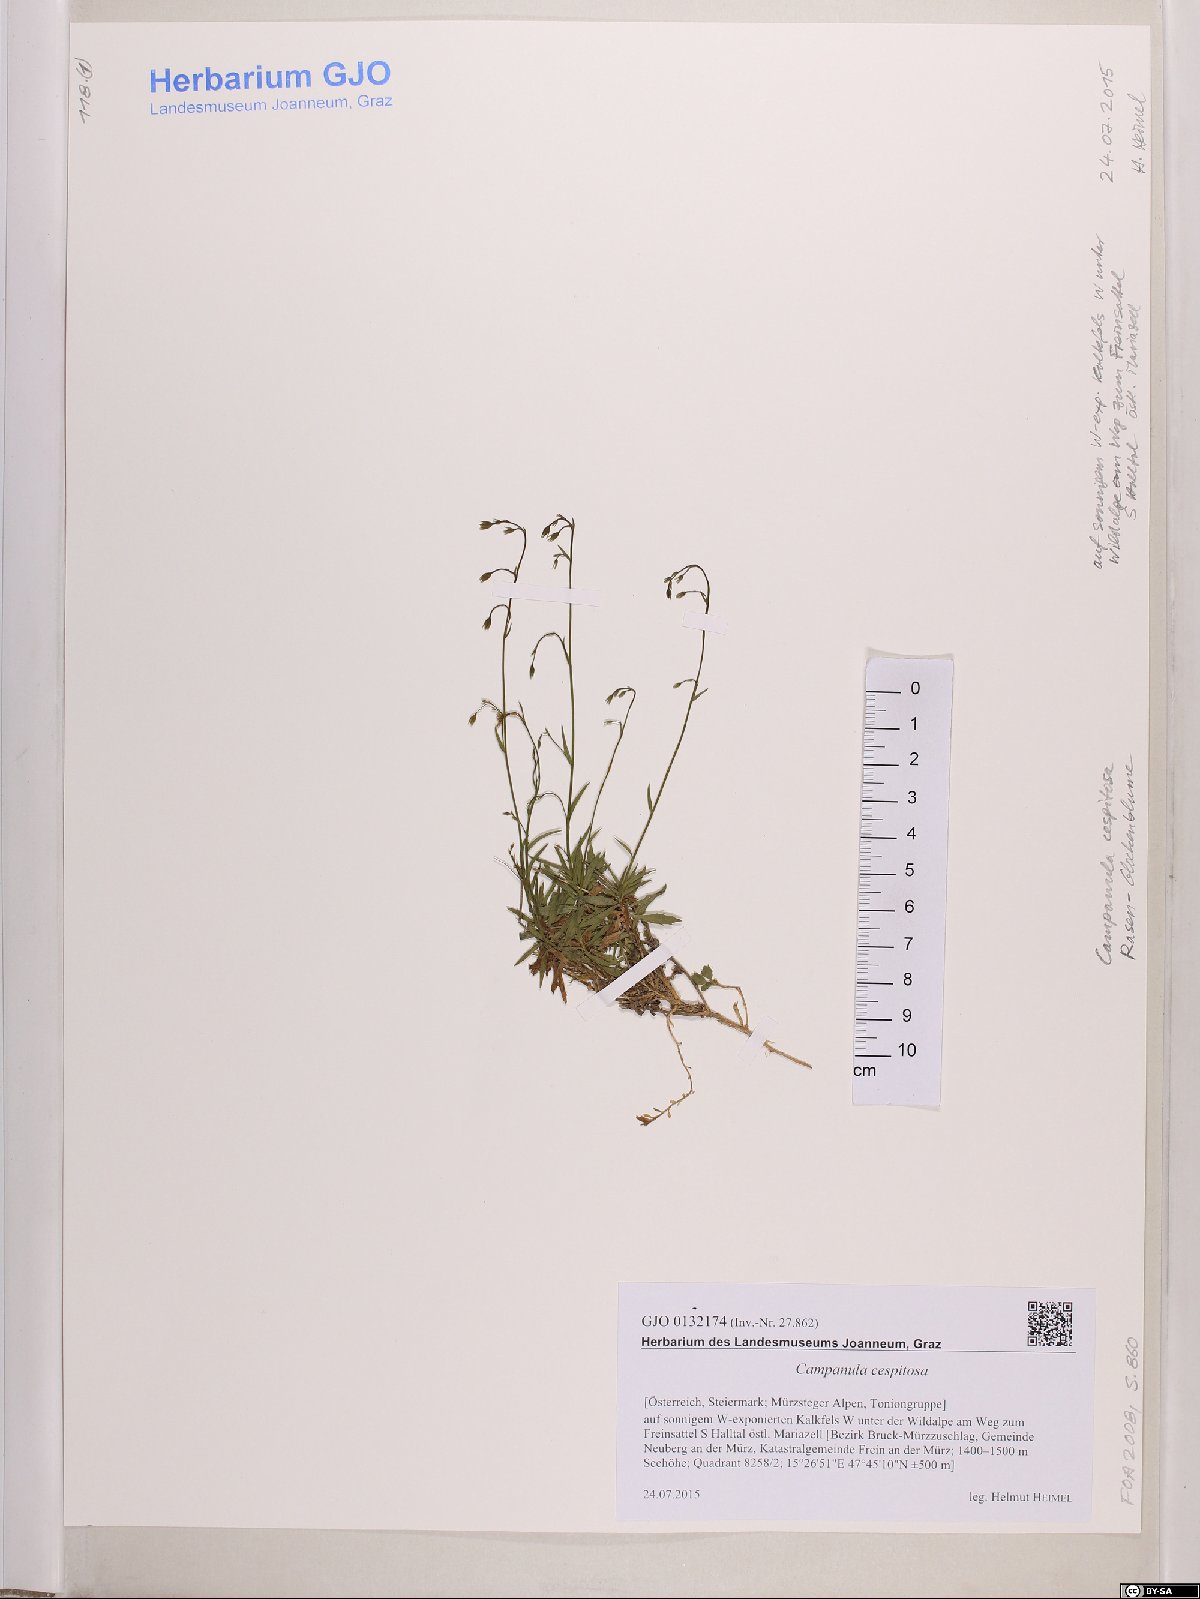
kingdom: Plantae
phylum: Tracheophyta
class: Magnoliopsida
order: Asterales
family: Campanulaceae
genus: Campanula
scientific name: Campanula cespitosa
